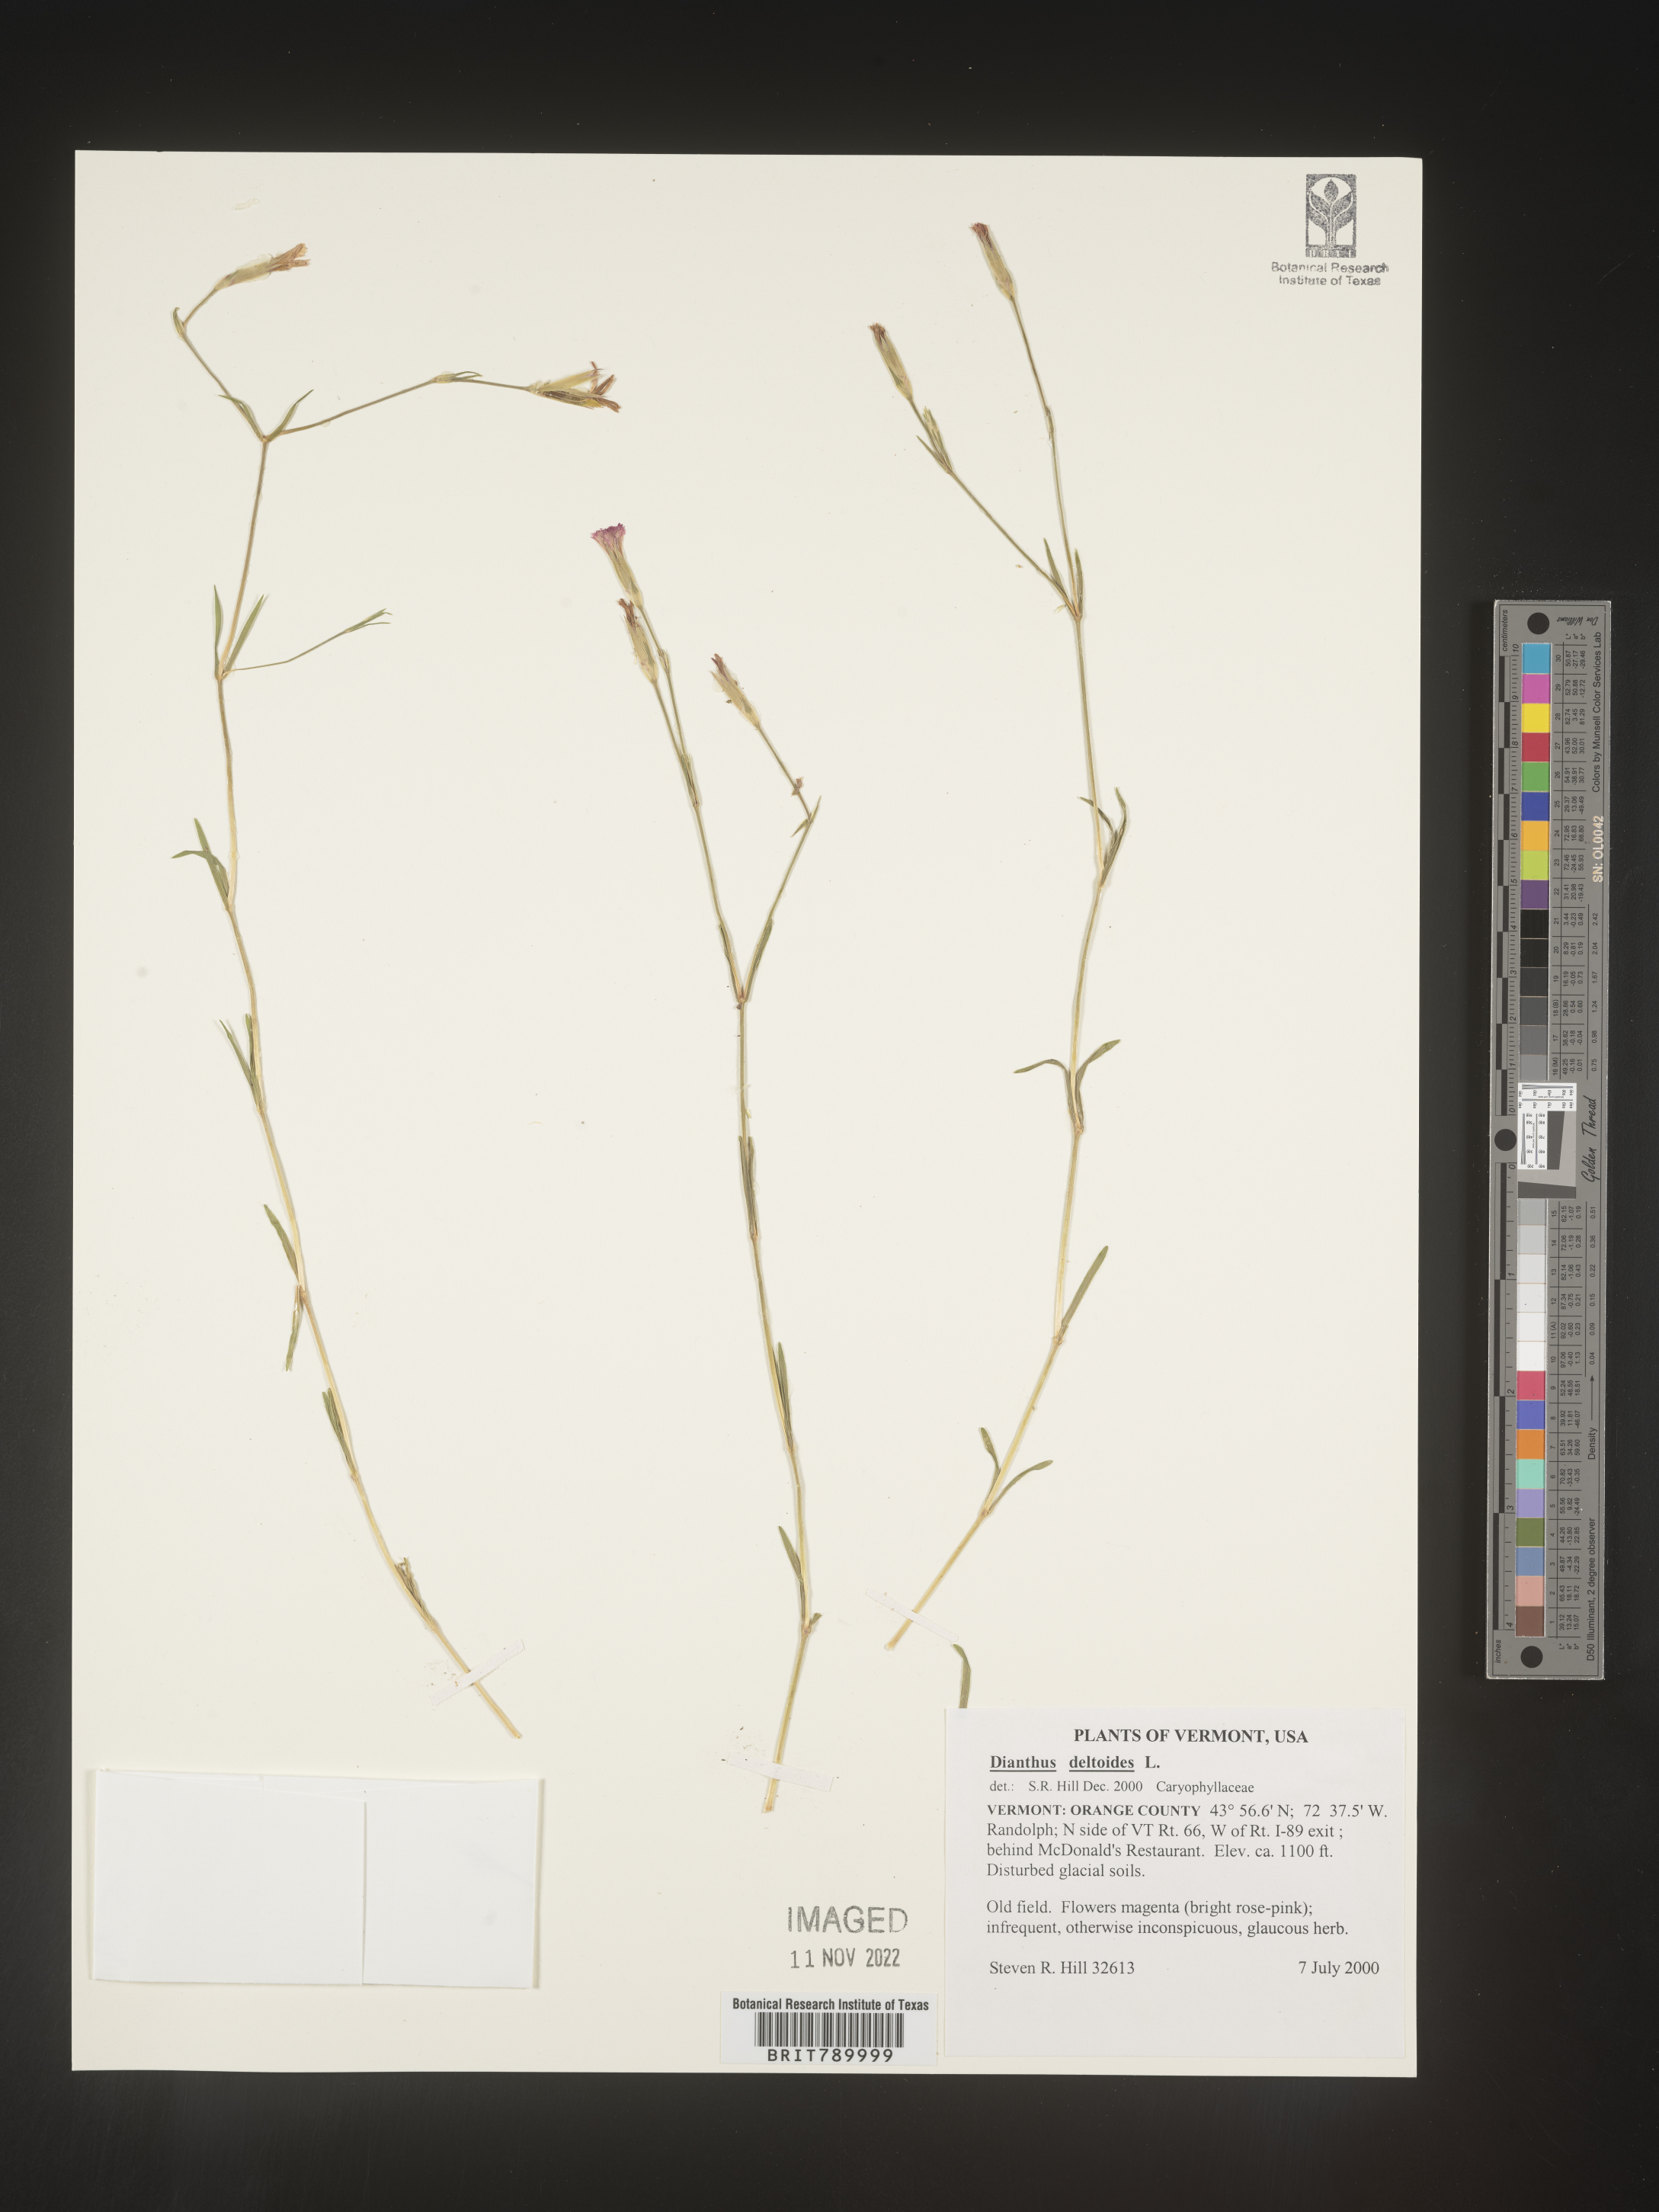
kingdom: Plantae
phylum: Tracheophyta
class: Magnoliopsida
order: Caryophyllales
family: Caryophyllaceae
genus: Dianthus
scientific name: Dianthus deltoides
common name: Maiden pink
